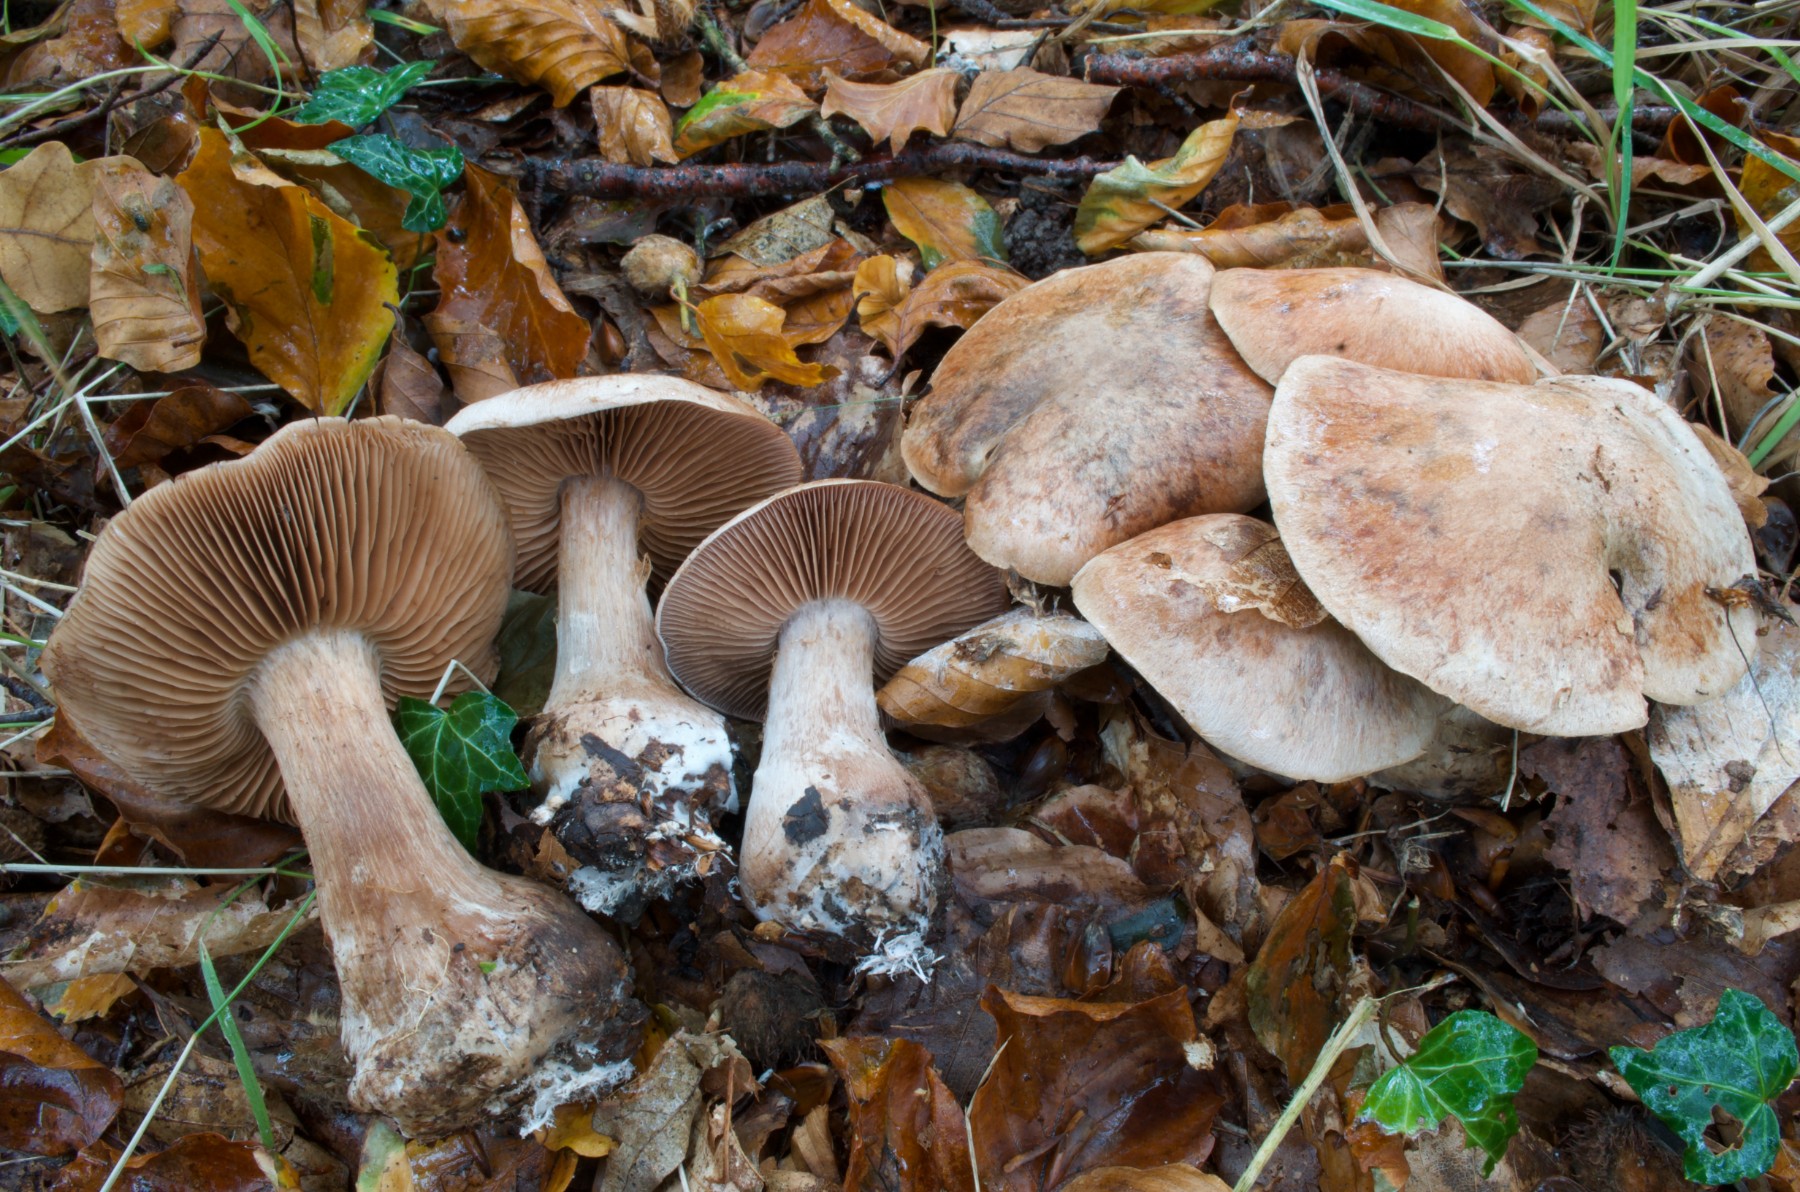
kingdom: Fungi
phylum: Basidiomycota
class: Agaricomycetes
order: Agaricales
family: Cortinariaceae
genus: Cortinarius
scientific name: Cortinarius stipitemirus
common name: vildsvine-slørhat
